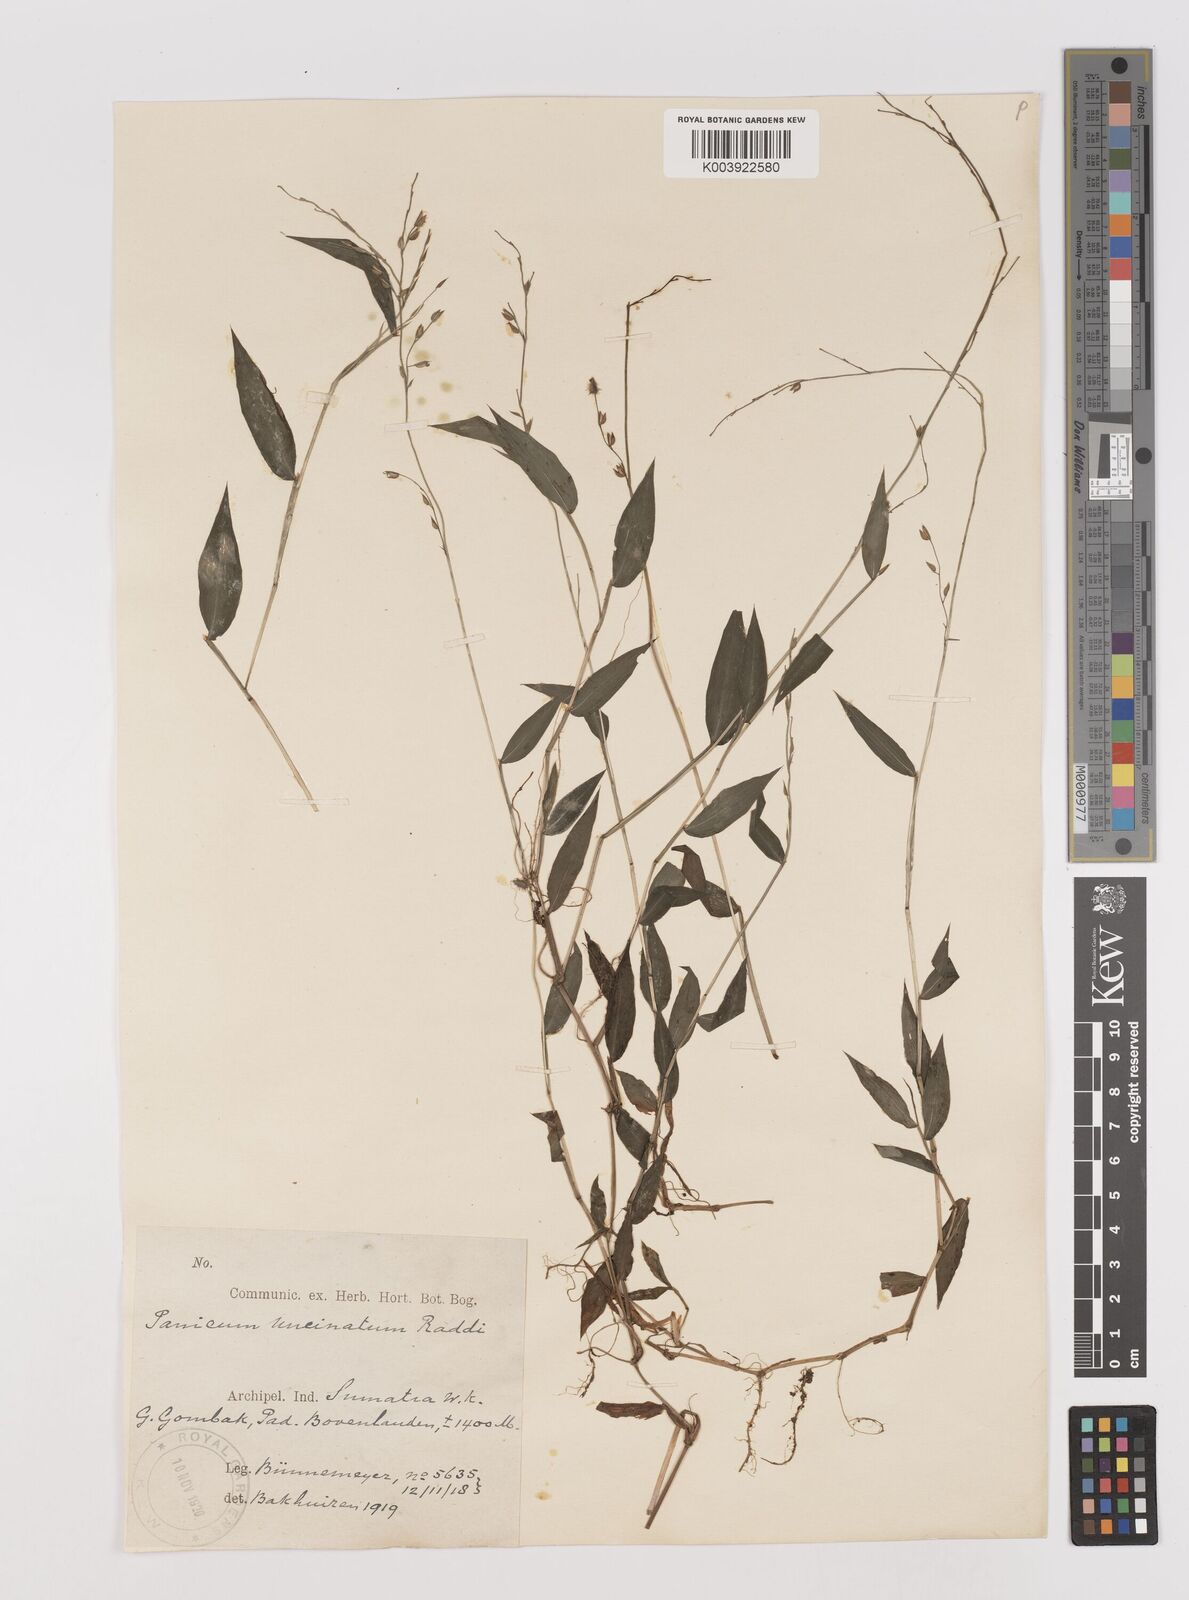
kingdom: Plantae
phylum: Tracheophyta
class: Liliopsida
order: Poales
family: Poaceae
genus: Pseudechinolaena
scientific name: Pseudechinolaena polystachya
